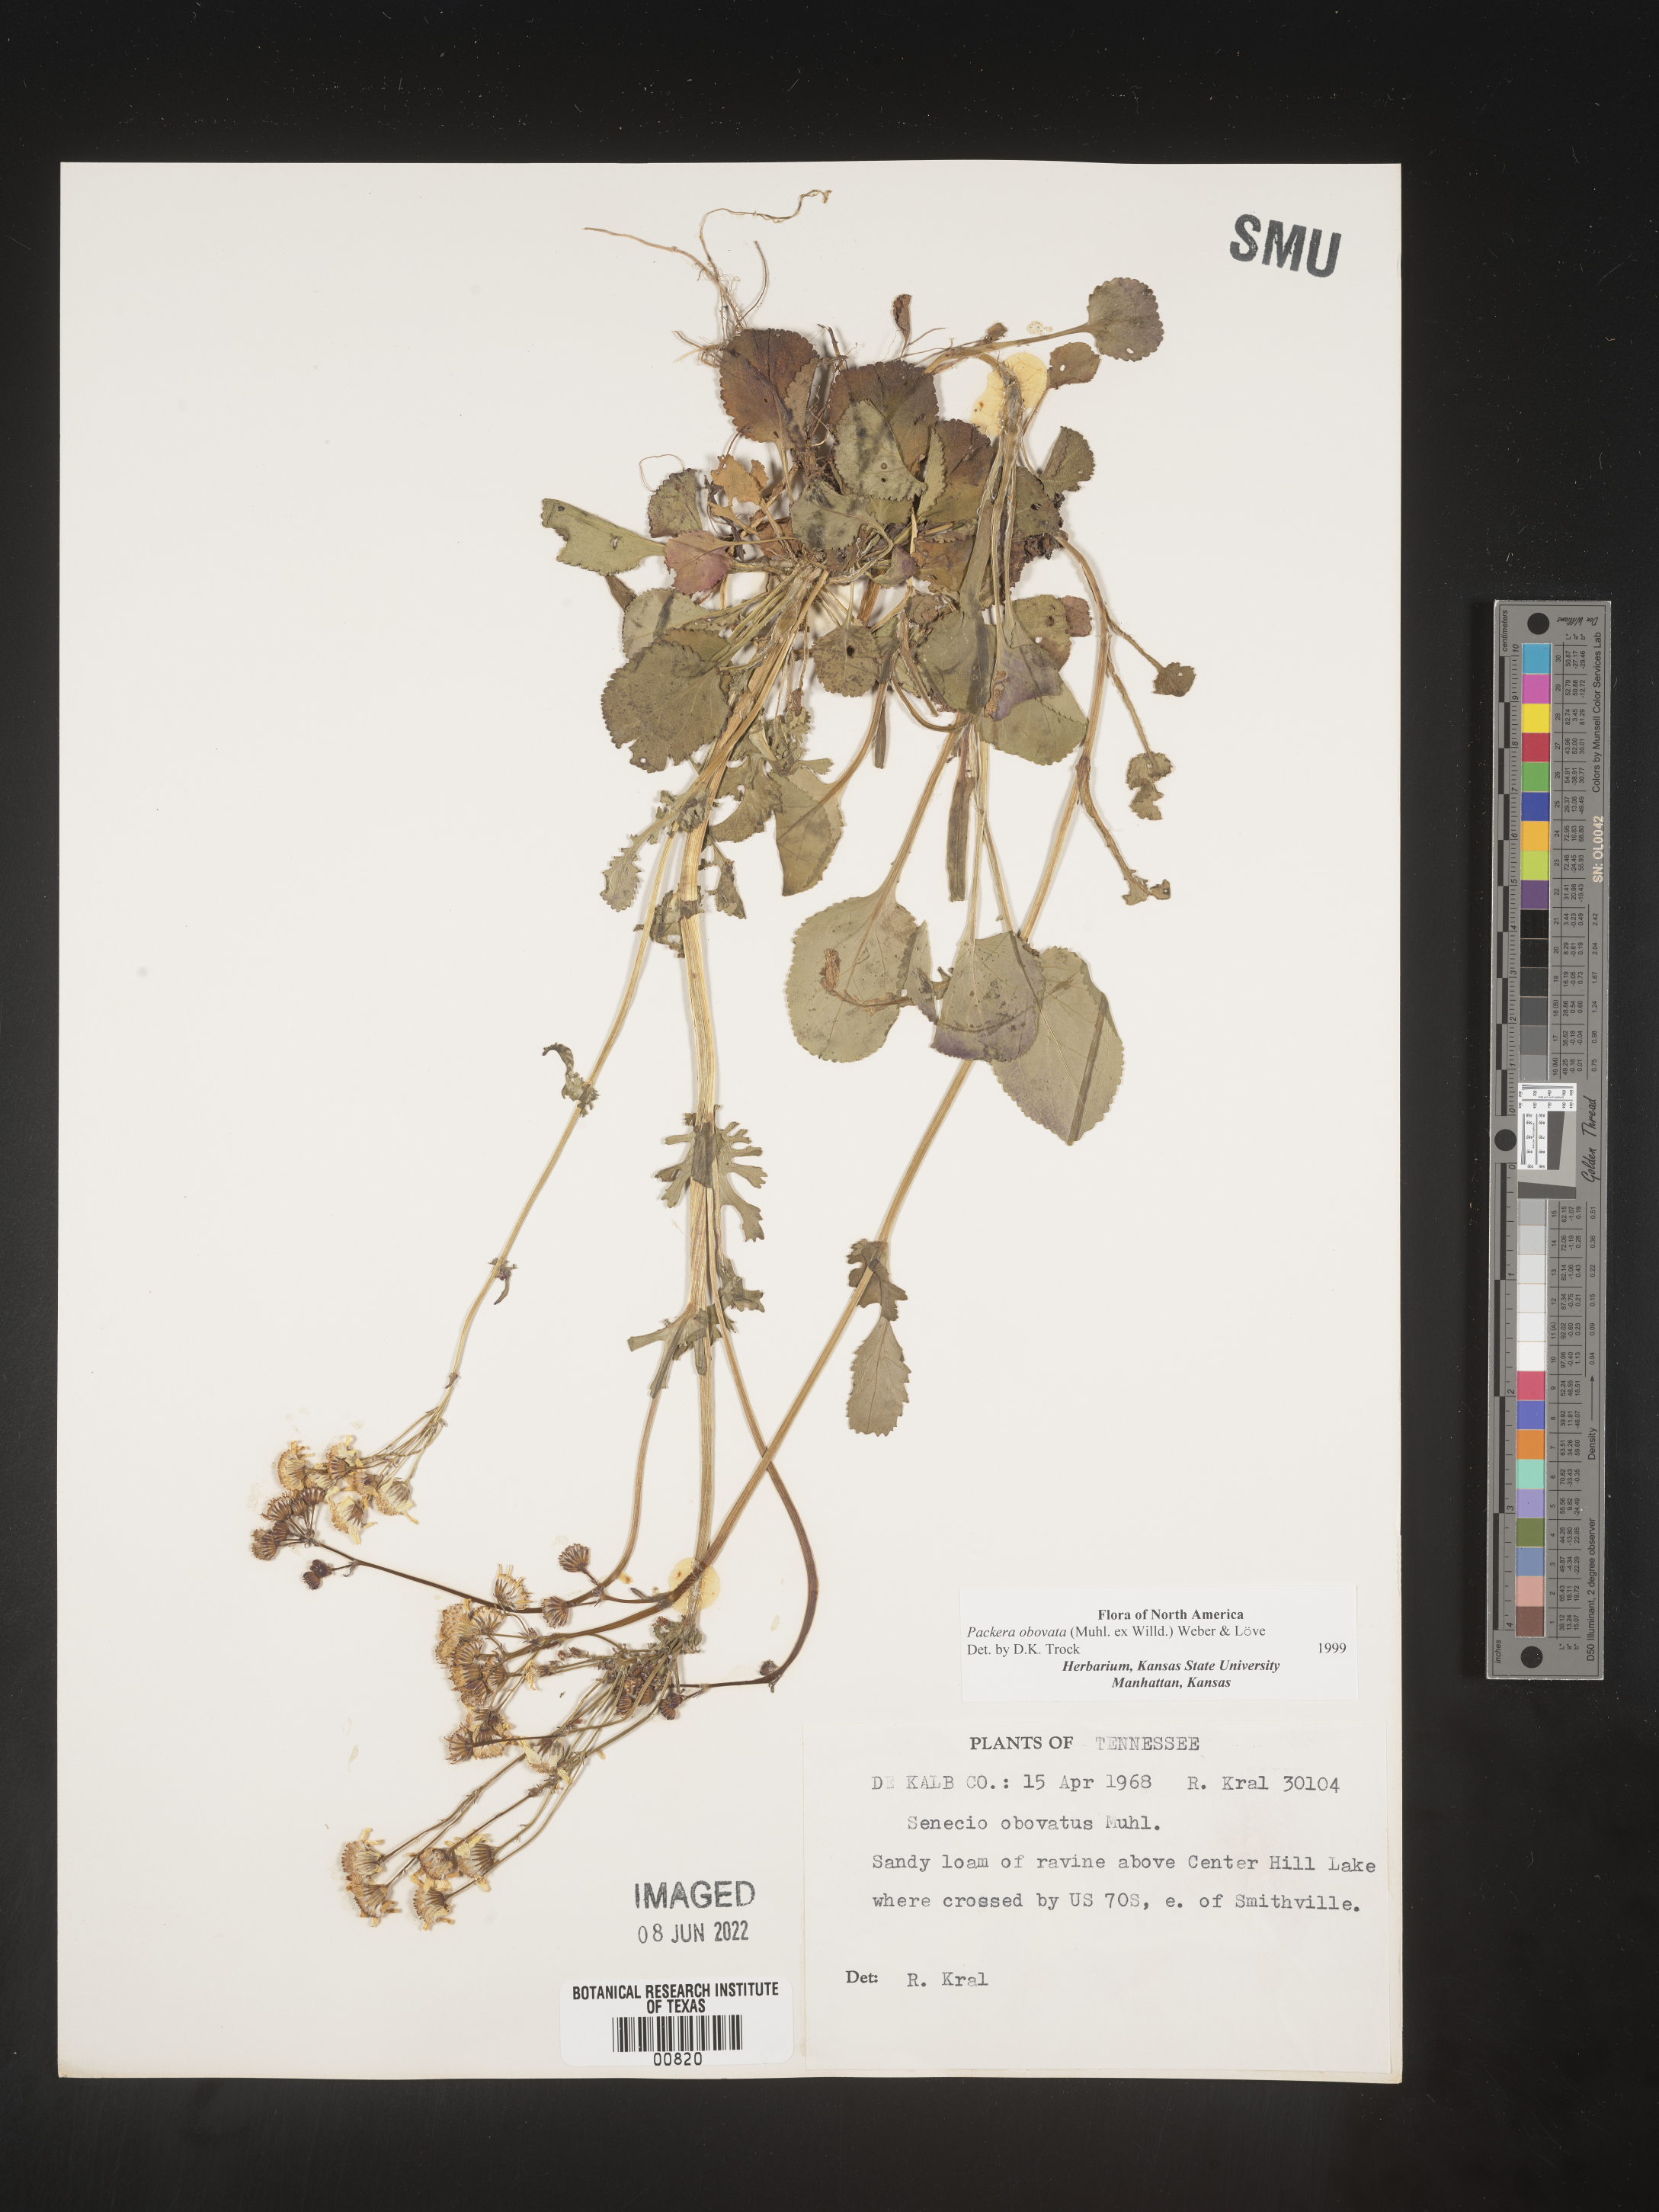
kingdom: Plantae
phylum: Tracheophyta
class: Magnoliopsida
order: Asterales
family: Asteraceae
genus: Packera
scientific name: Packera obovata
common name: Round-leaf ragwort
